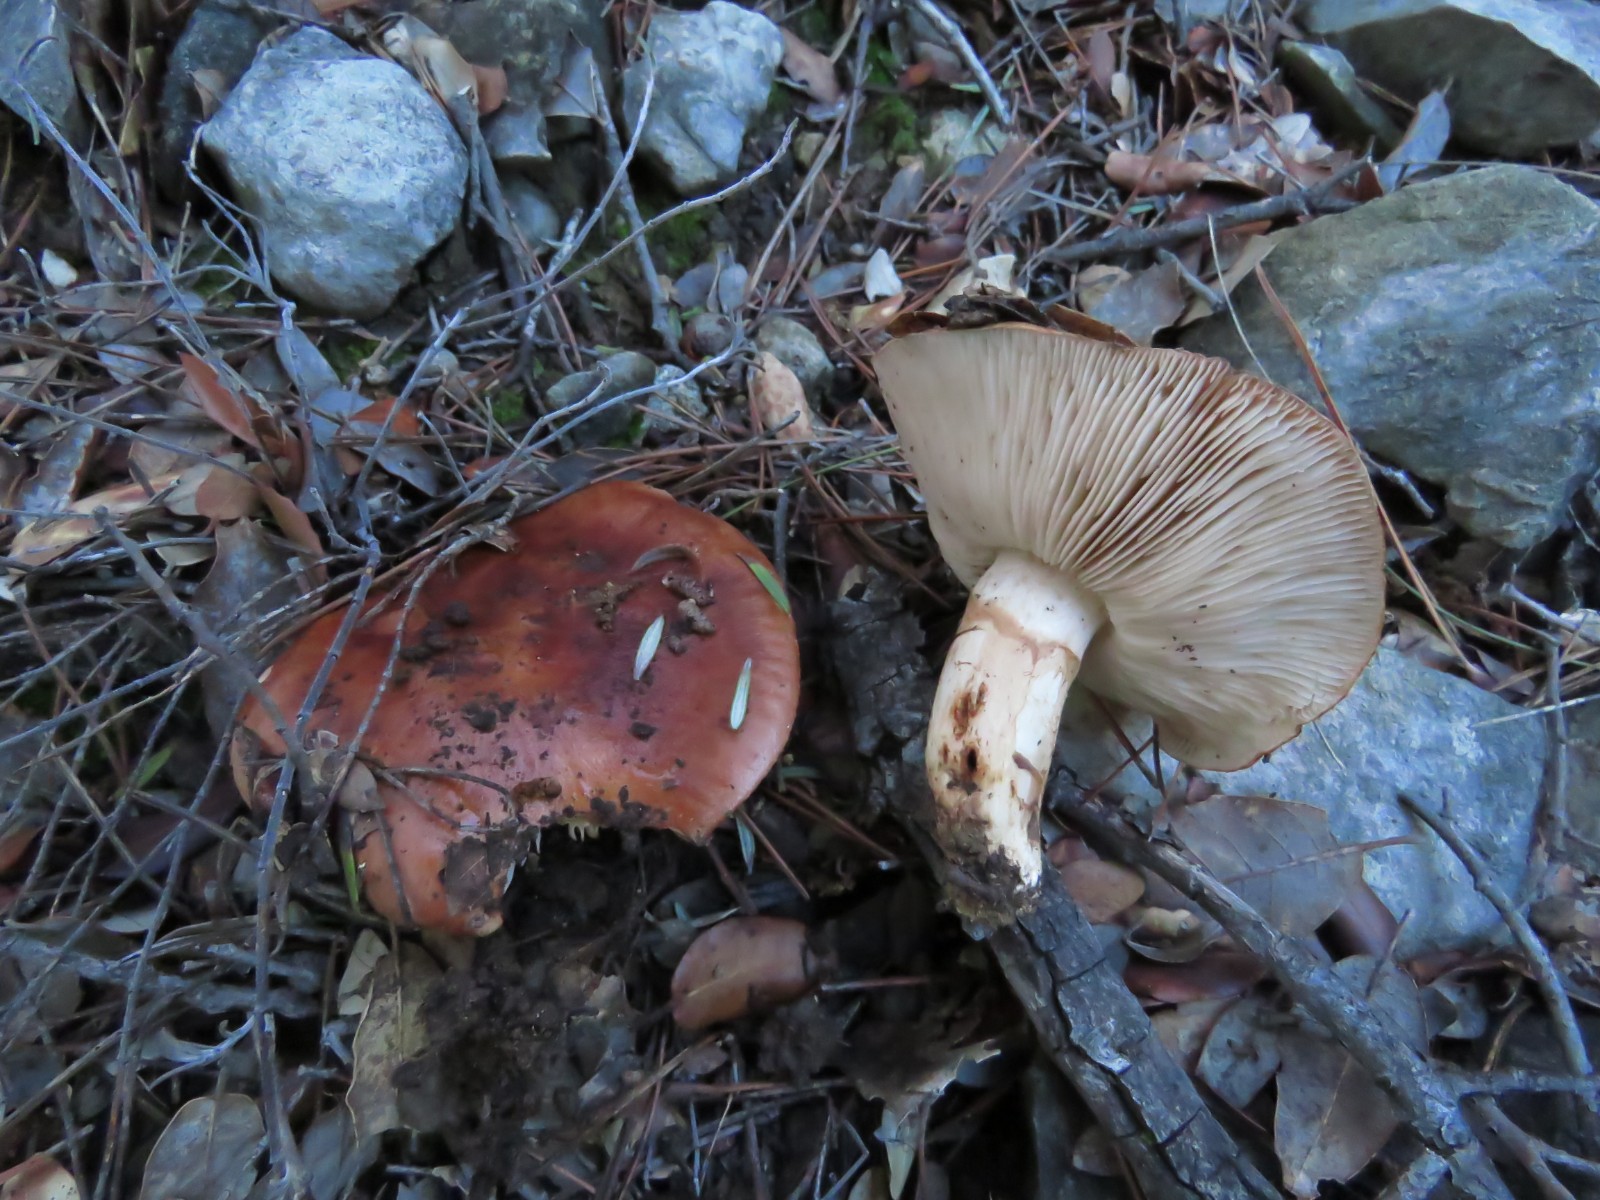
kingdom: Fungi
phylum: Basidiomycota
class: Agaricomycetes
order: Agaricales
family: Tricholomataceae
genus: Tricholoma
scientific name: Tricholoma fracticum
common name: hvidhalset ridderhat
